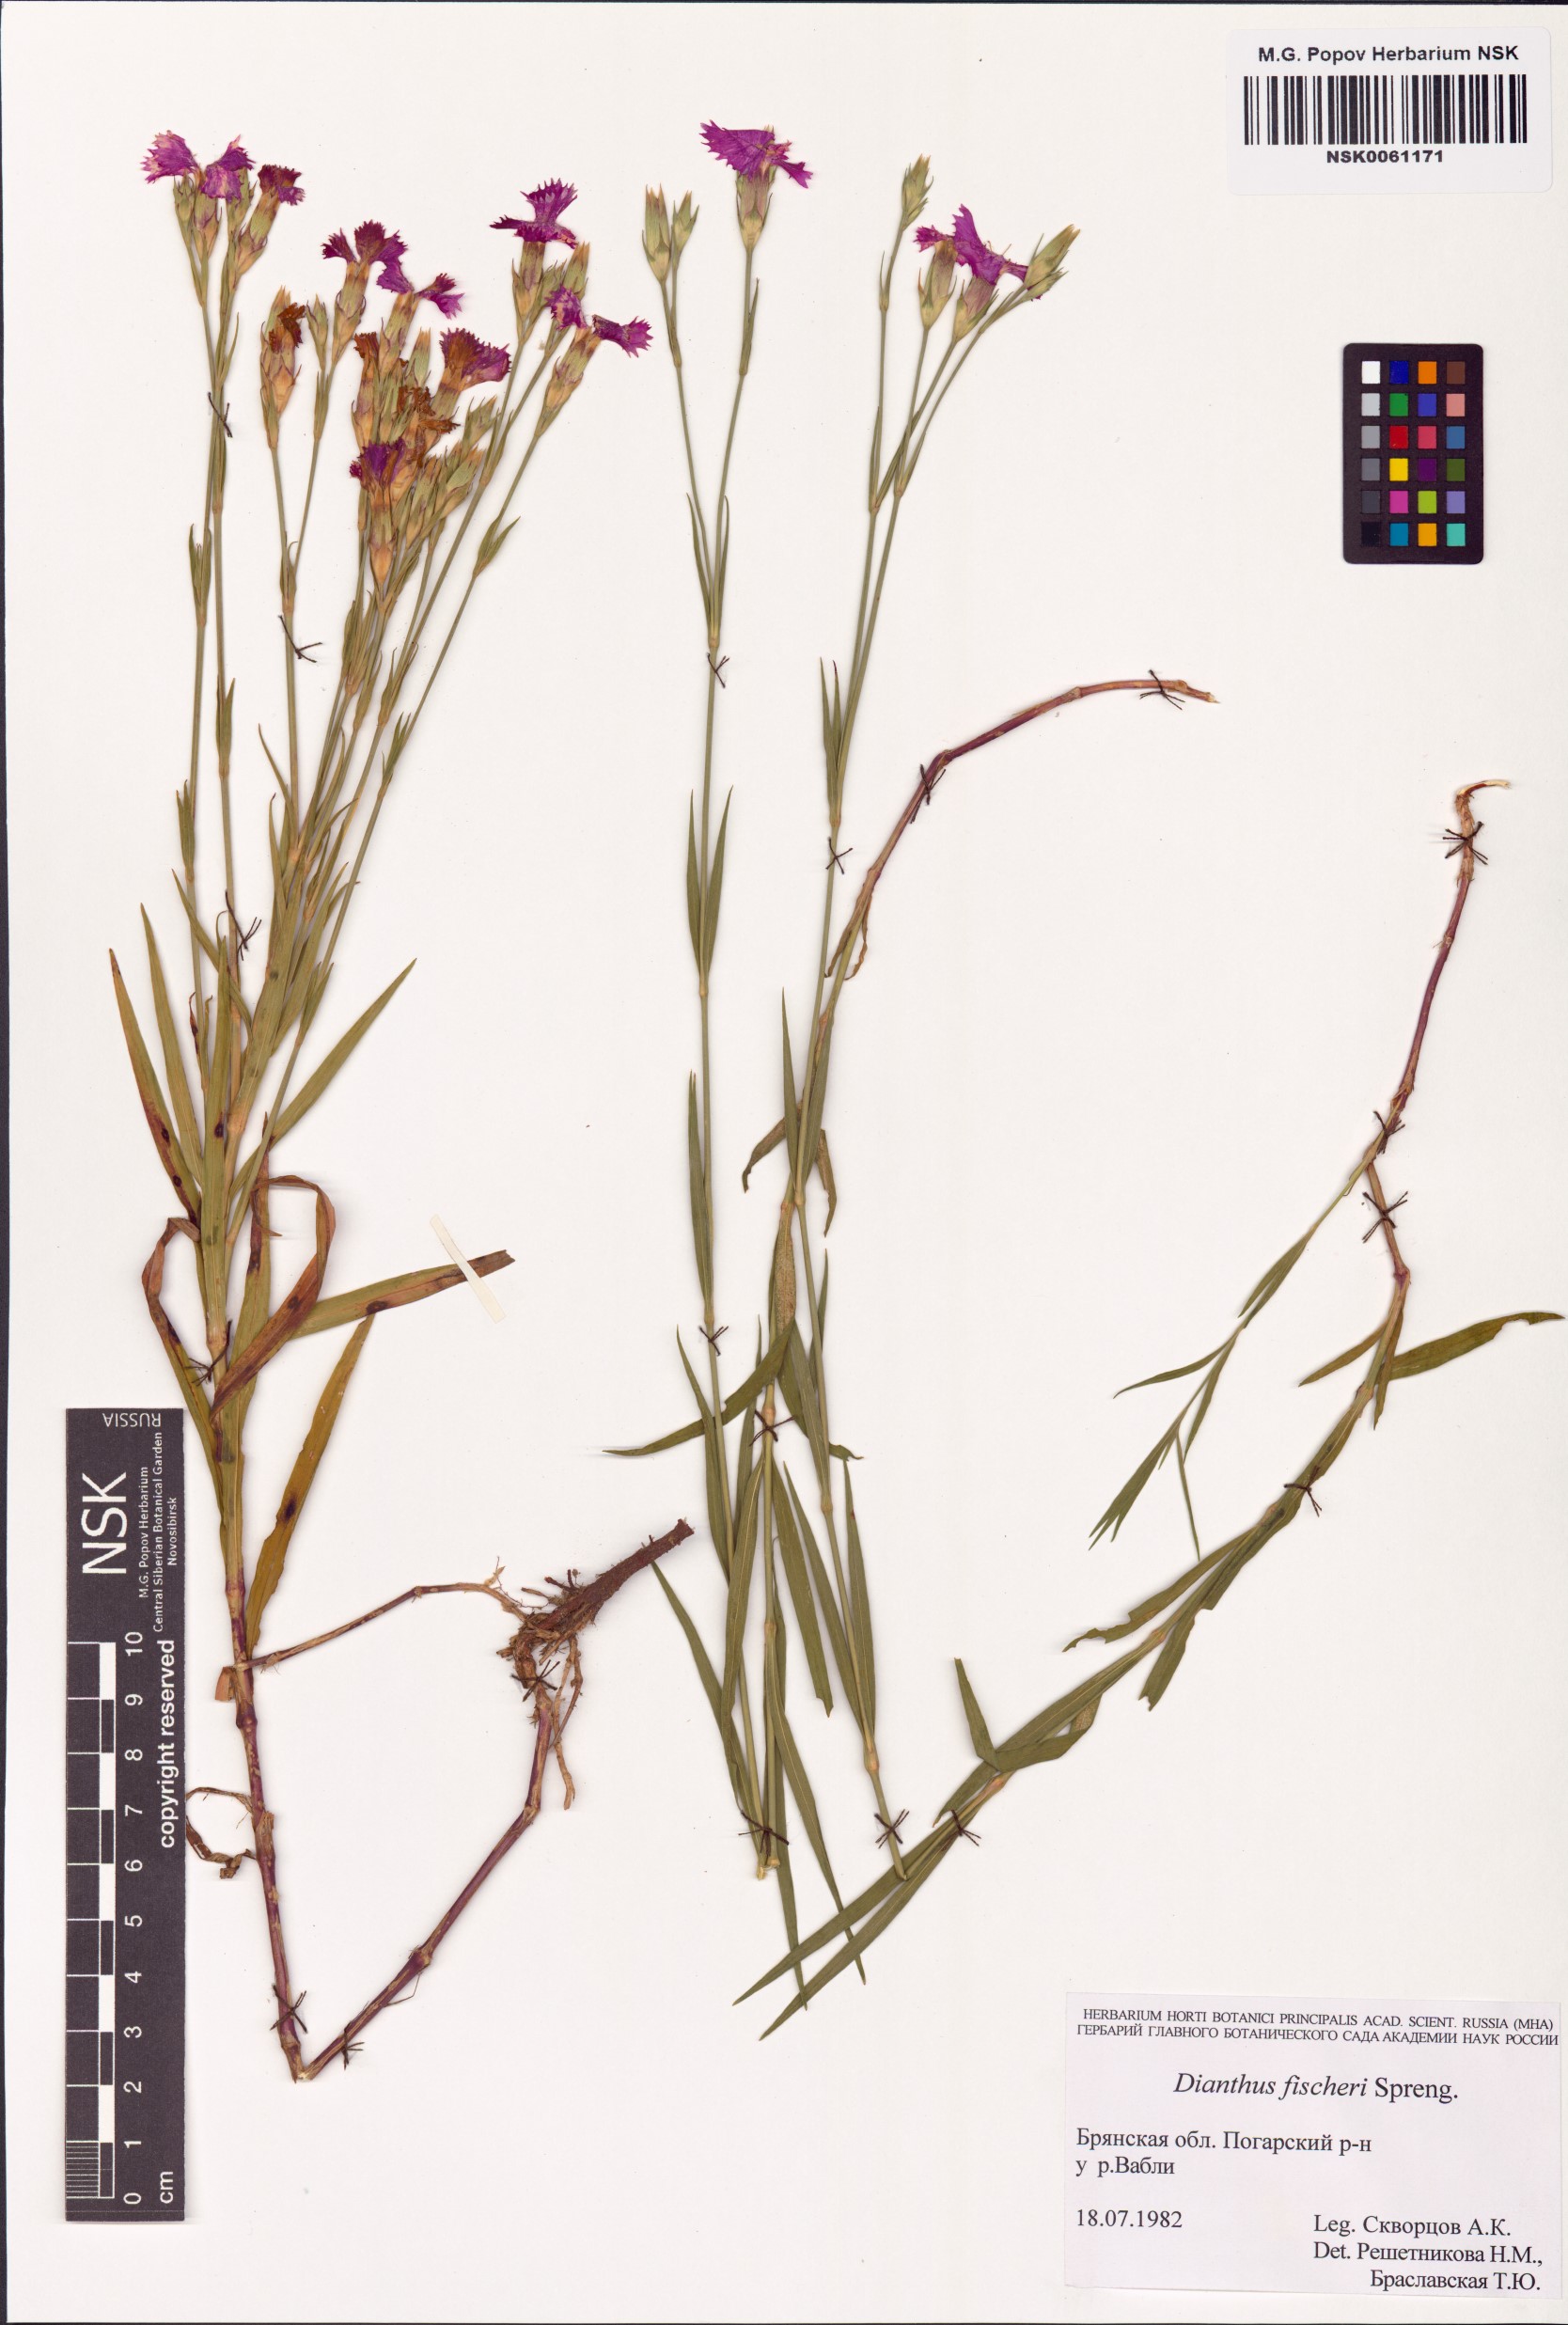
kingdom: Plantae
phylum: Tracheophyta
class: Magnoliopsida
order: Caryophyllales
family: Caryophyllaceae
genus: Dianthus
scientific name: Dianthus chinensis
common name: Rainbow pink
